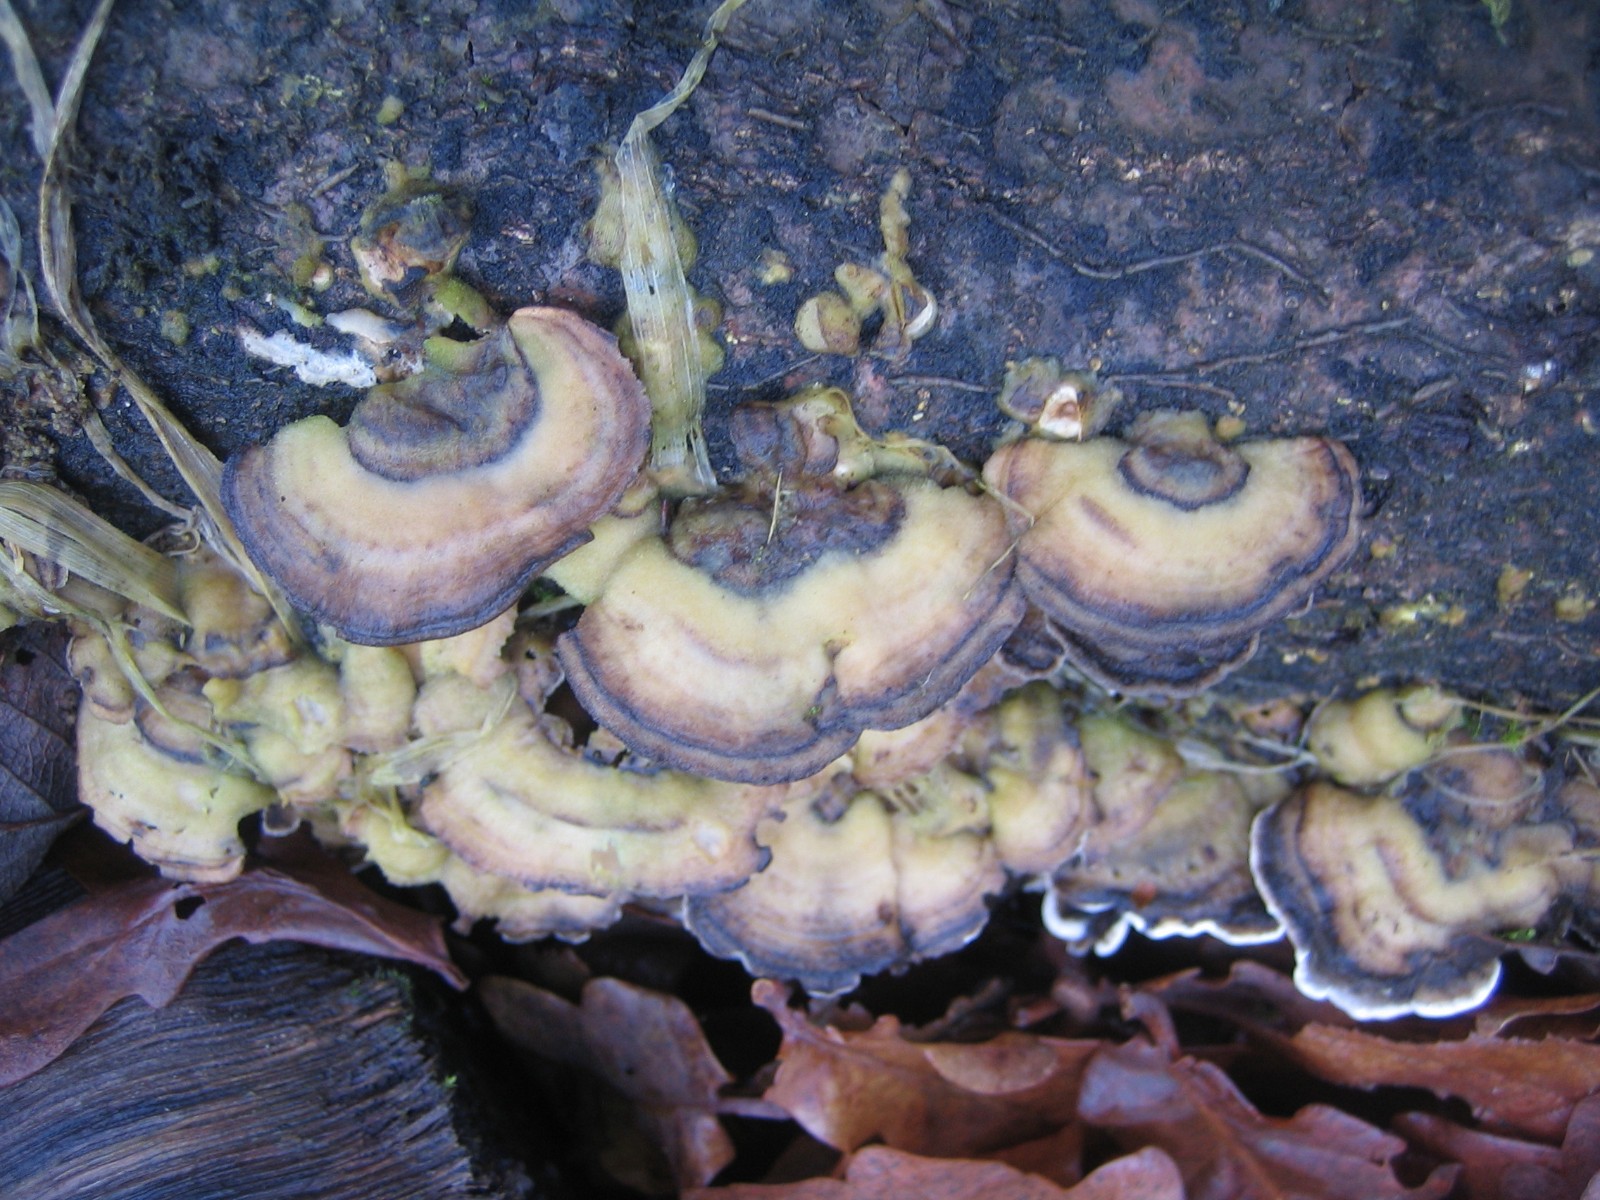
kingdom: Fungi
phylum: Basidiomycota
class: Agaricomycetes
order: Polyporales
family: Phanerochaetaceae
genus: Bjerkandera
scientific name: Bjerkandera adusta
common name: sveden sodporesvamp
